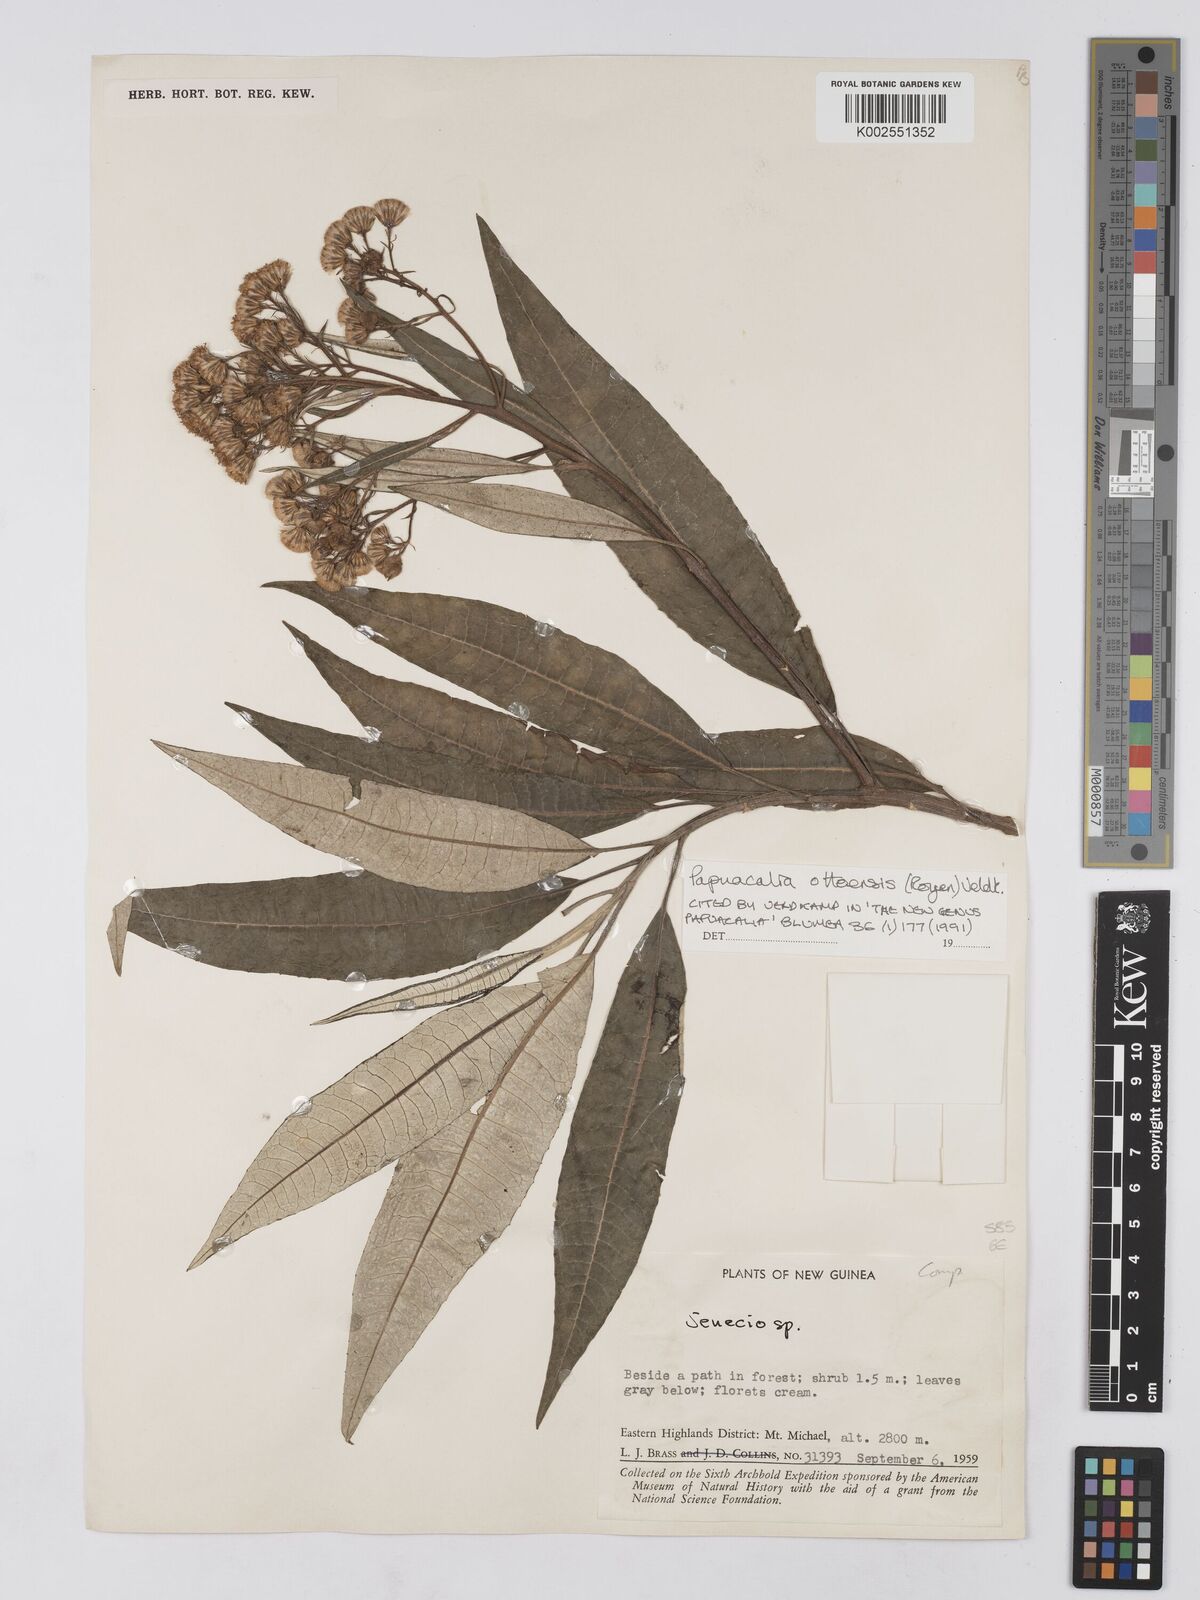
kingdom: Plantae
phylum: Tracheophyta
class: Magnoliopsida
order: Asterales
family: Asteraceae
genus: Papuacalia
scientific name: Papuacalia ottoensis
